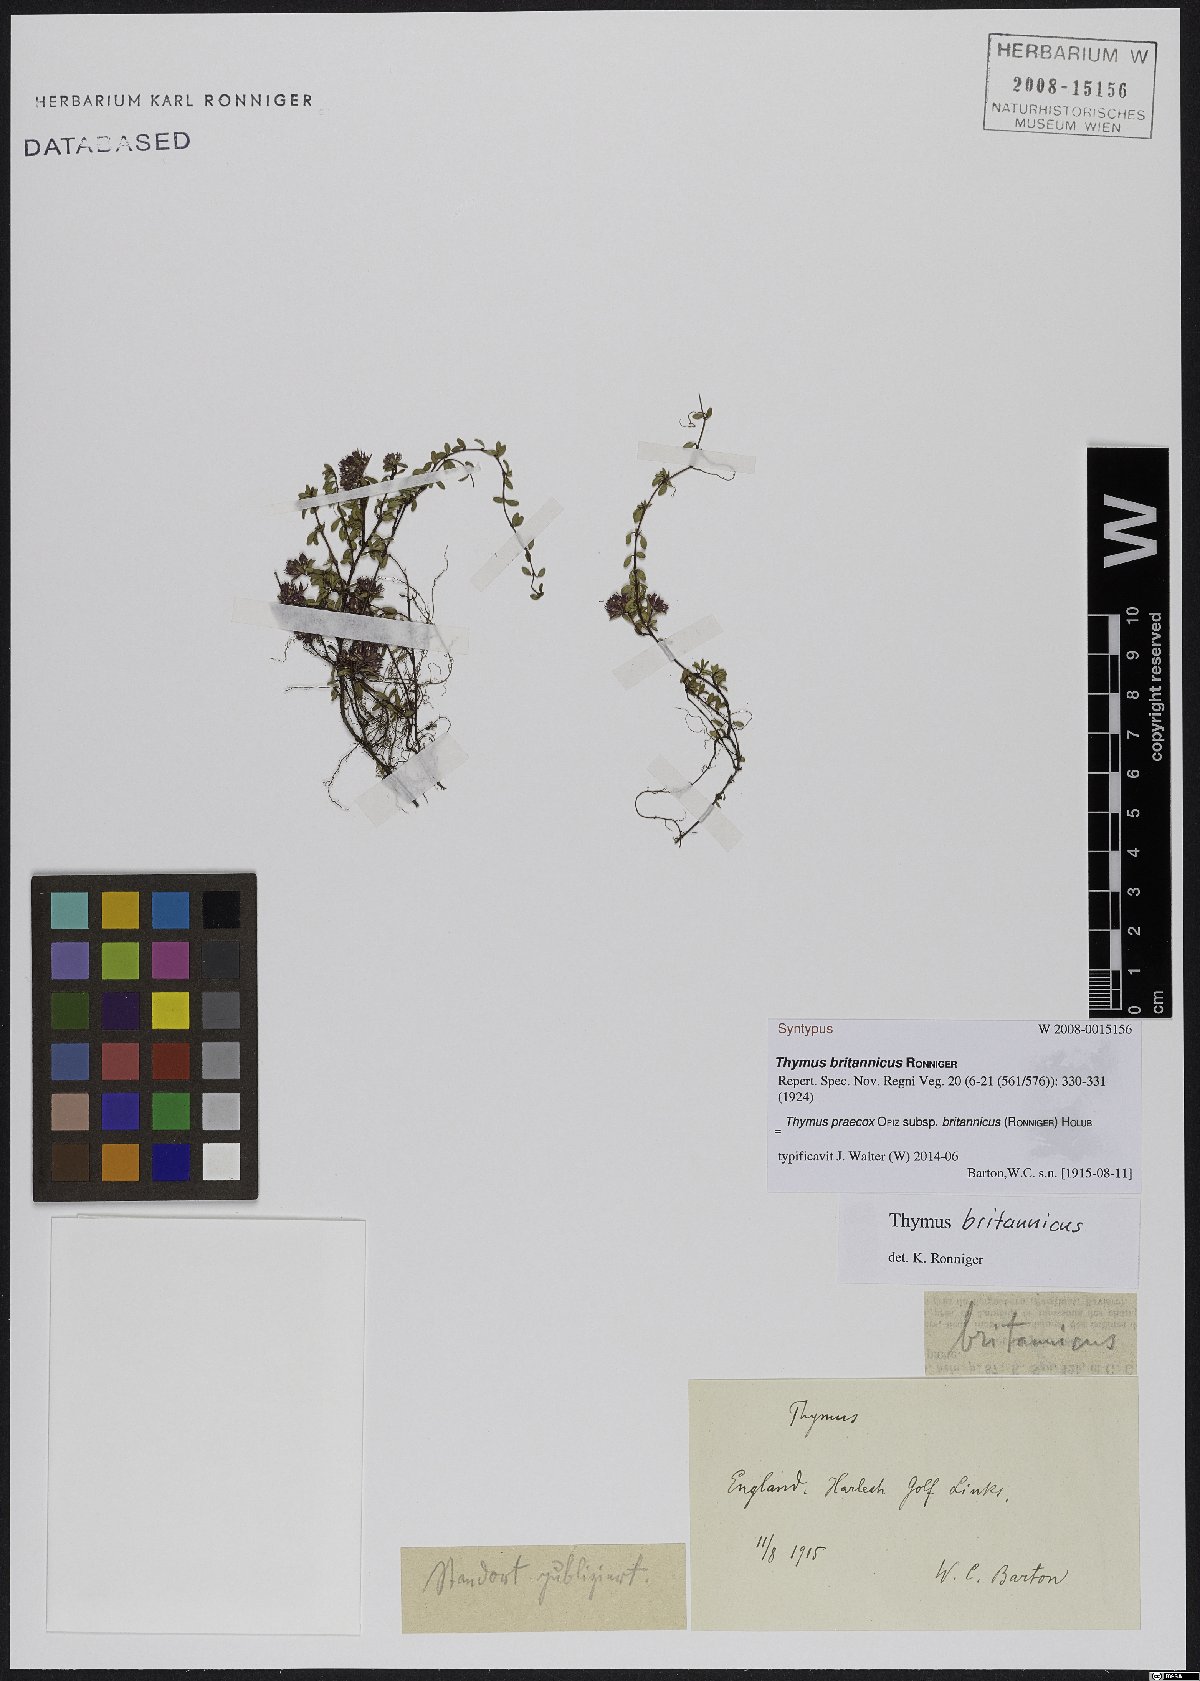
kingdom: Plantae
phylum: Tracheophyta
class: Magnoliopsida
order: Lamiales
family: Lamiaceae
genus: Thymus
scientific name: Thymus praecox
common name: Wild thyme
